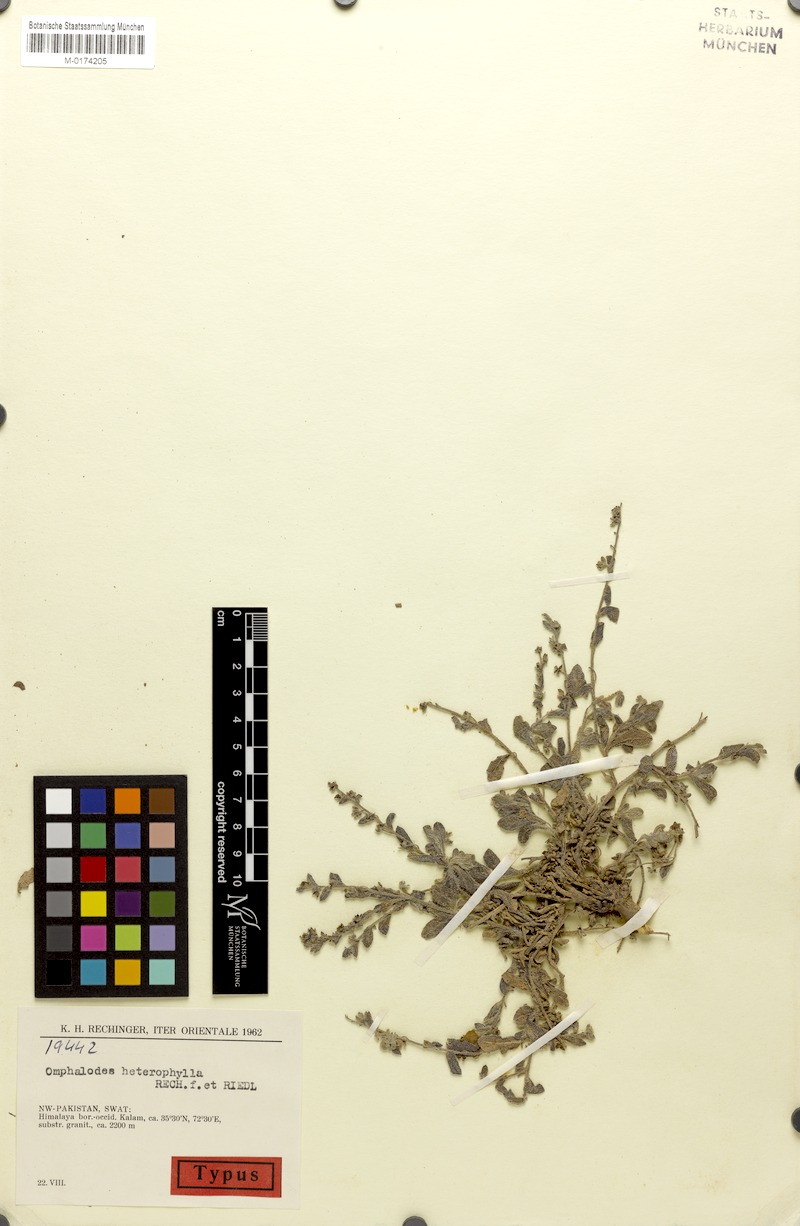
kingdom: Plantae
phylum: Tracheophyta
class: Magnoliopsida
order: Boraginales
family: Boraginaceae
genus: Lepechiniella
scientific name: Lepechiniella microcarpa
